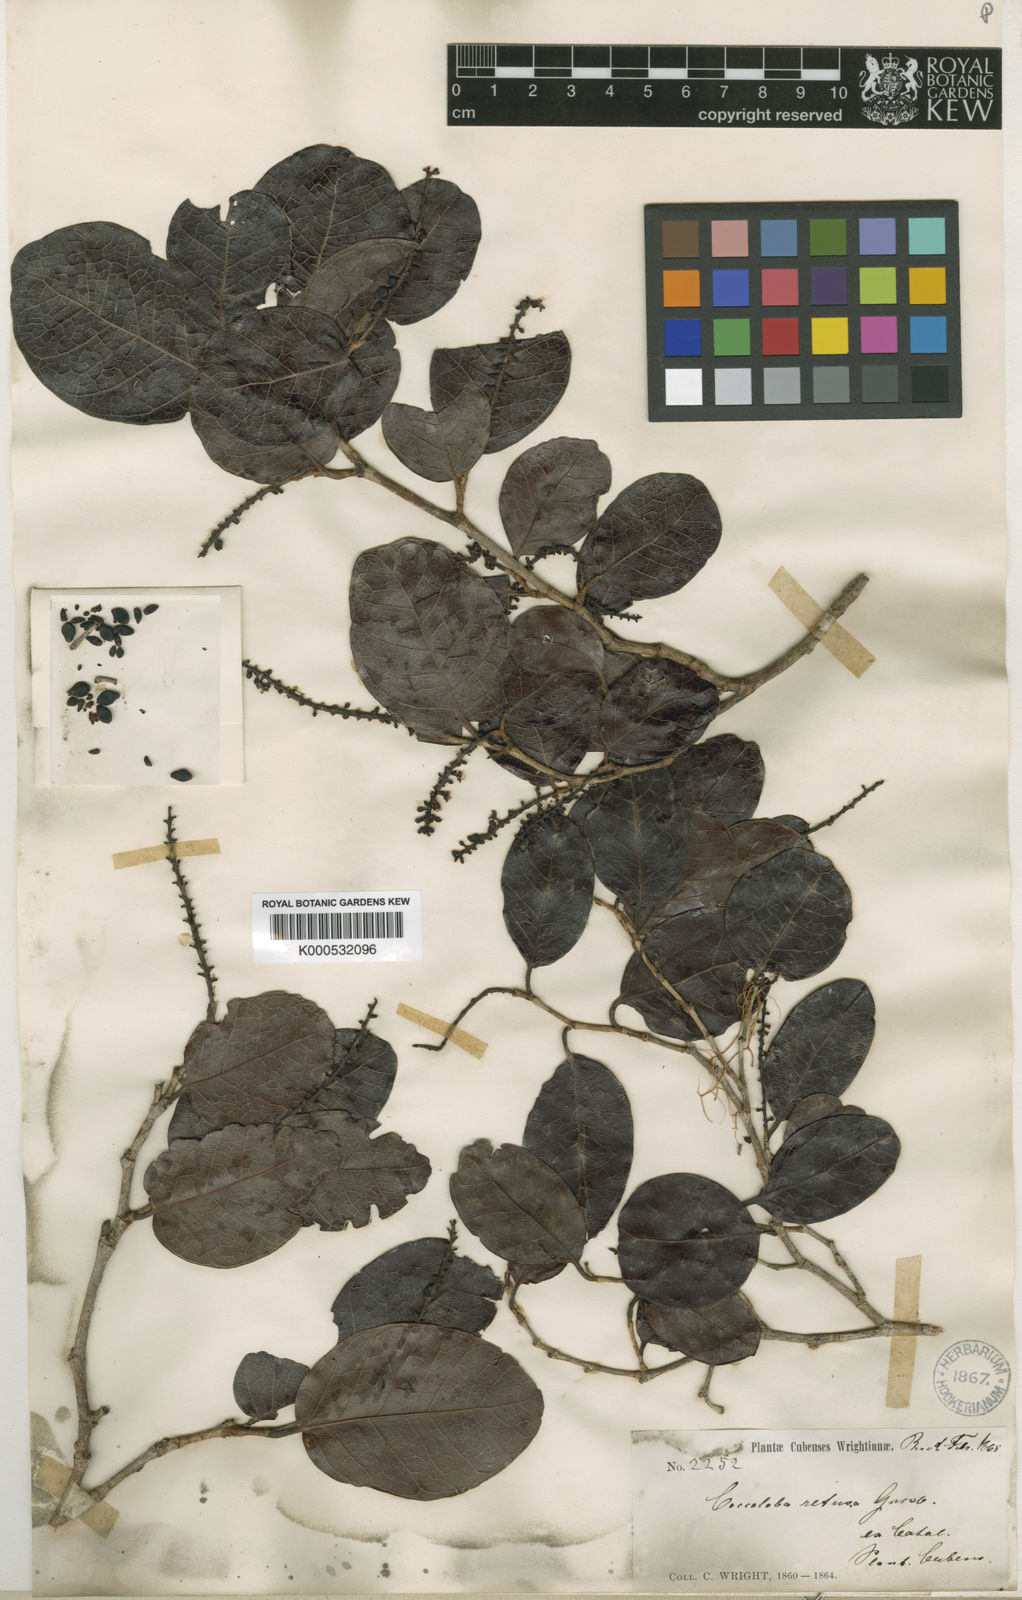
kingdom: Plantae
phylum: Tracheophyta
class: Magnoliopsida
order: Caryophyllales
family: Polygonaceae
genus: Coccoloba
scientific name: Coccoloba retusa
